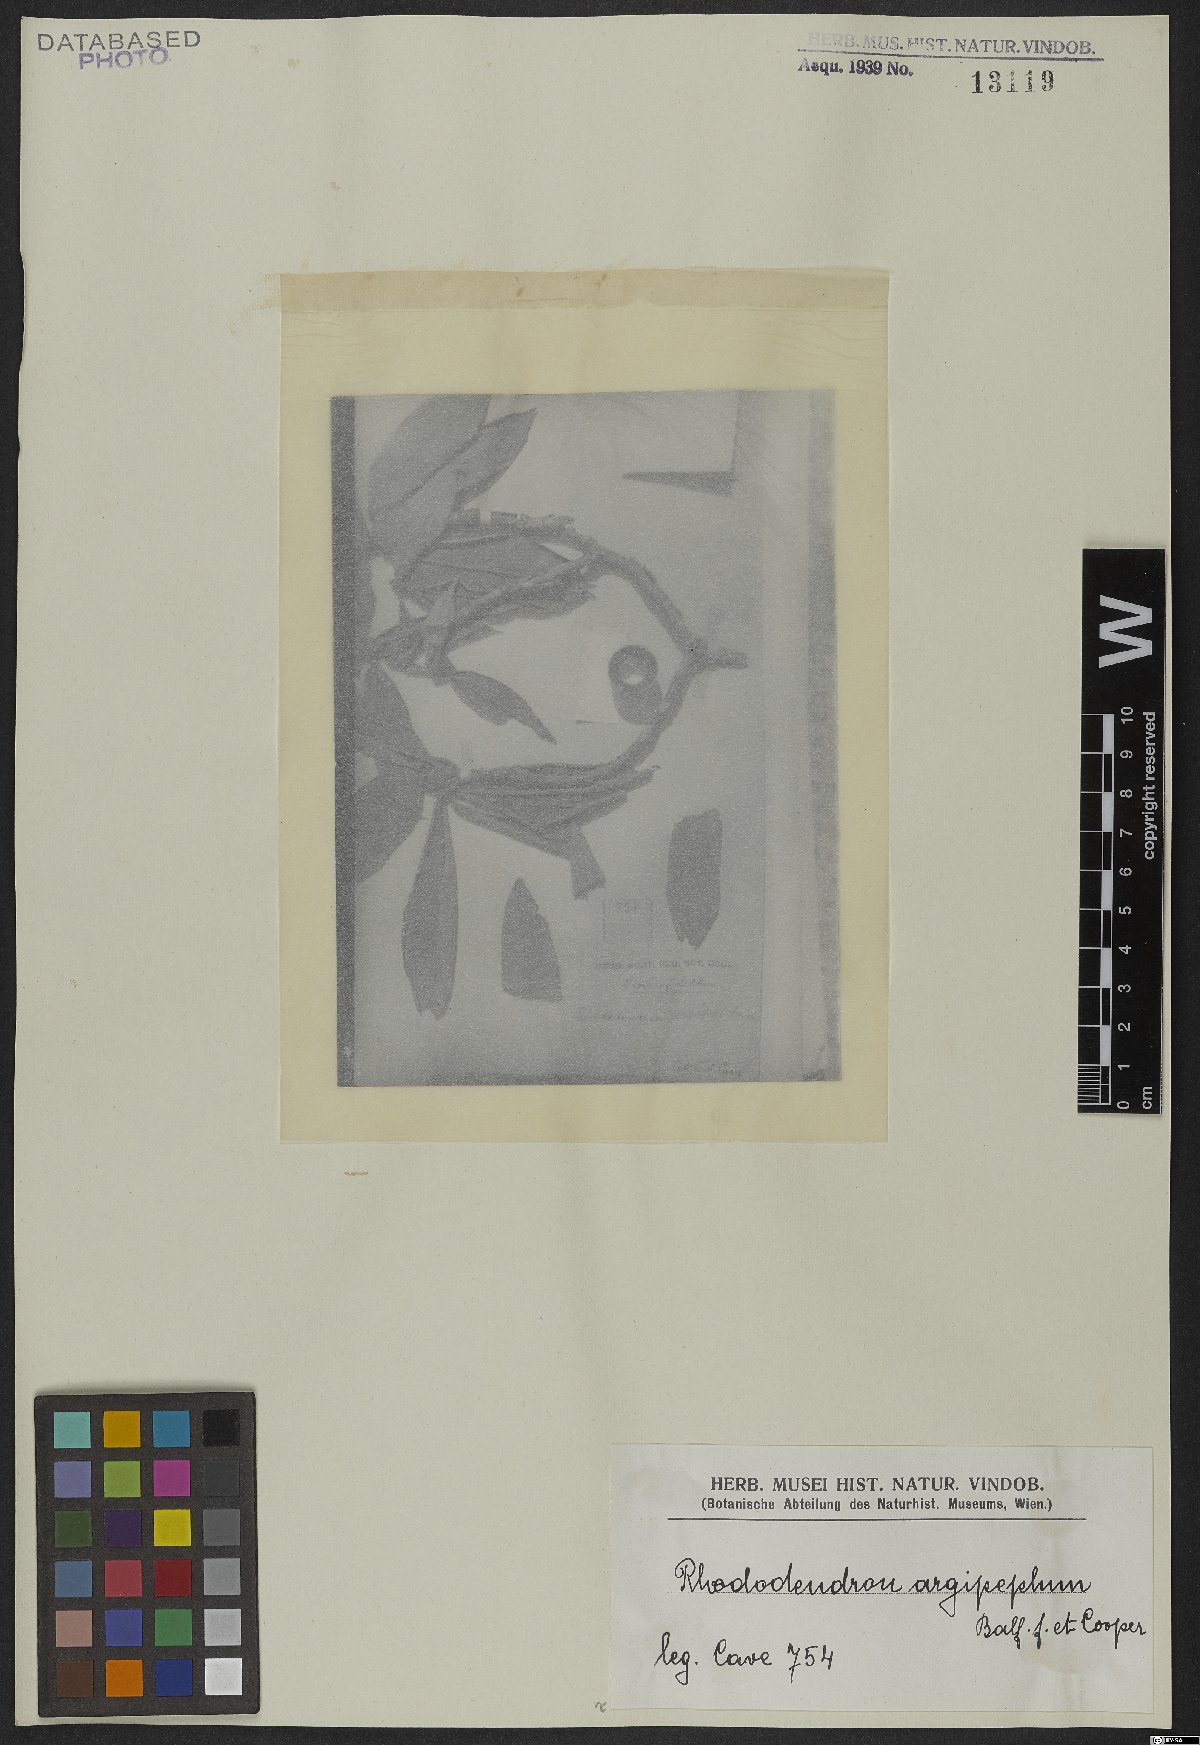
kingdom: Plantae
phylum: Tracheophyta
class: Magnoliopsida
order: Ericales
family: Ericaceae
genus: Rhododendron
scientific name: Rhododendron argipeplum
